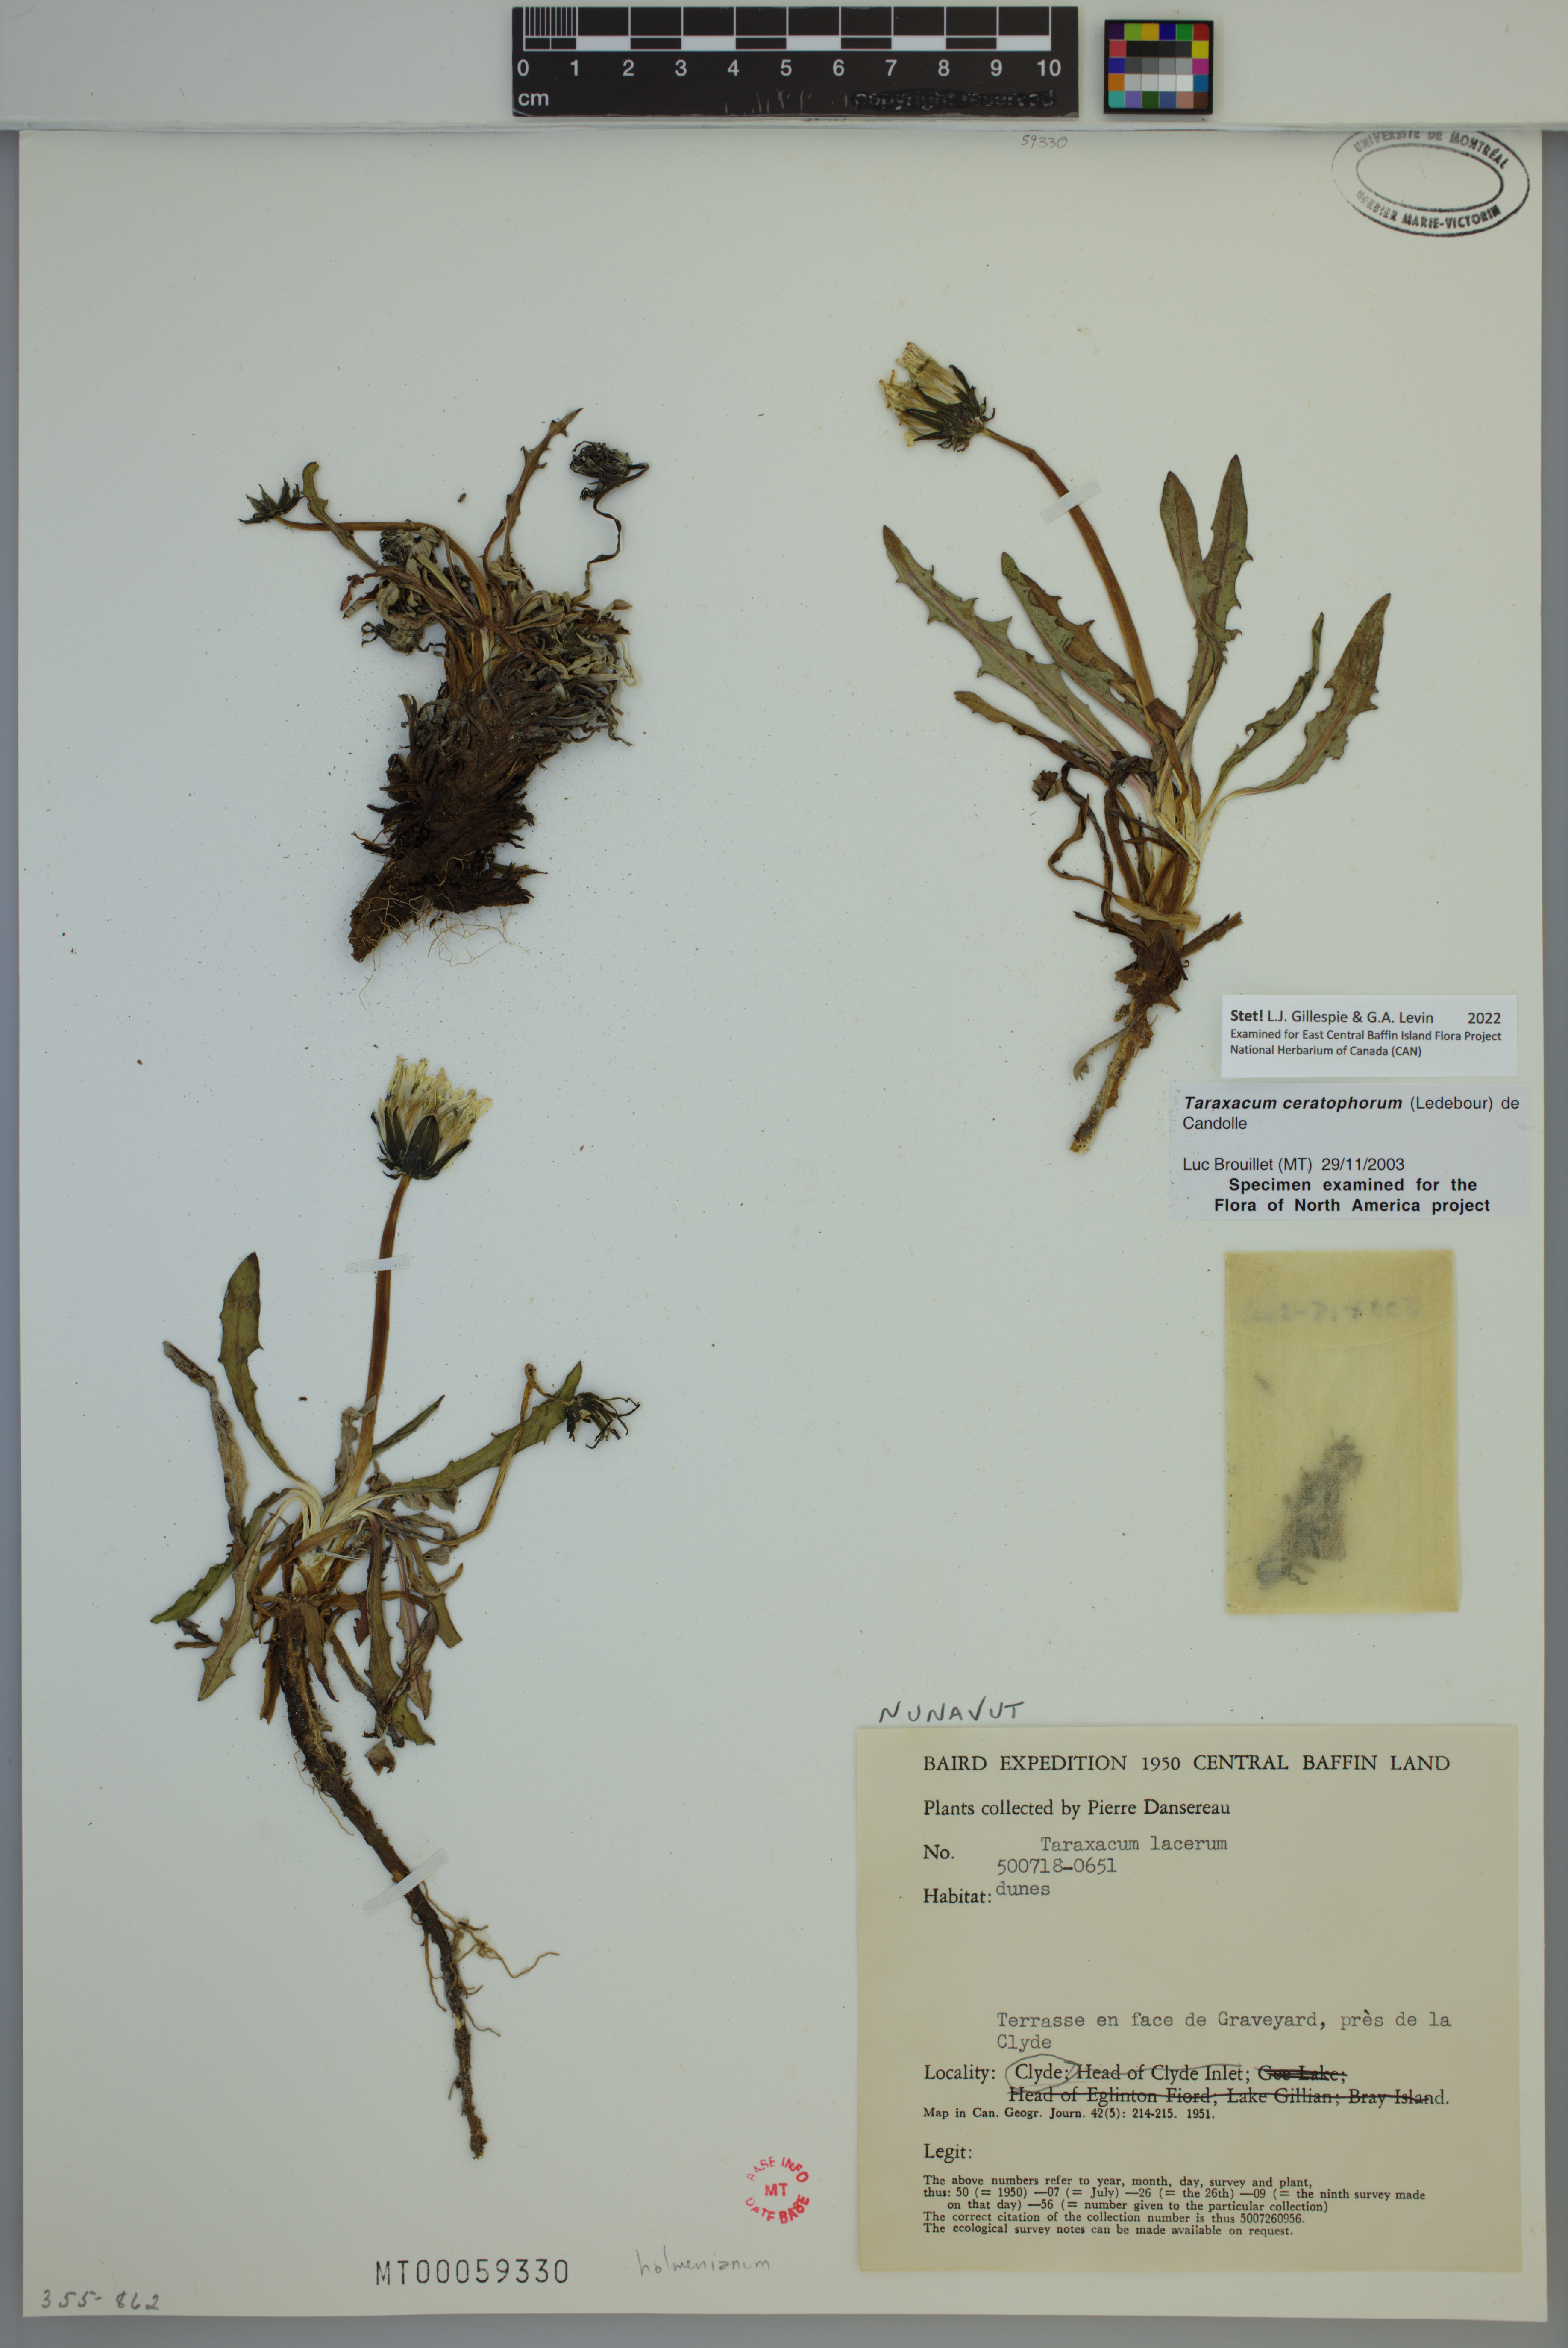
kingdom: Plantae
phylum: Tracheophyta
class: Magnoliopsida
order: Asterales
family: Asteraceae
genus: Taraxacum
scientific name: Taraxacum ceratophorum
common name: Horn-bearing dandelion
